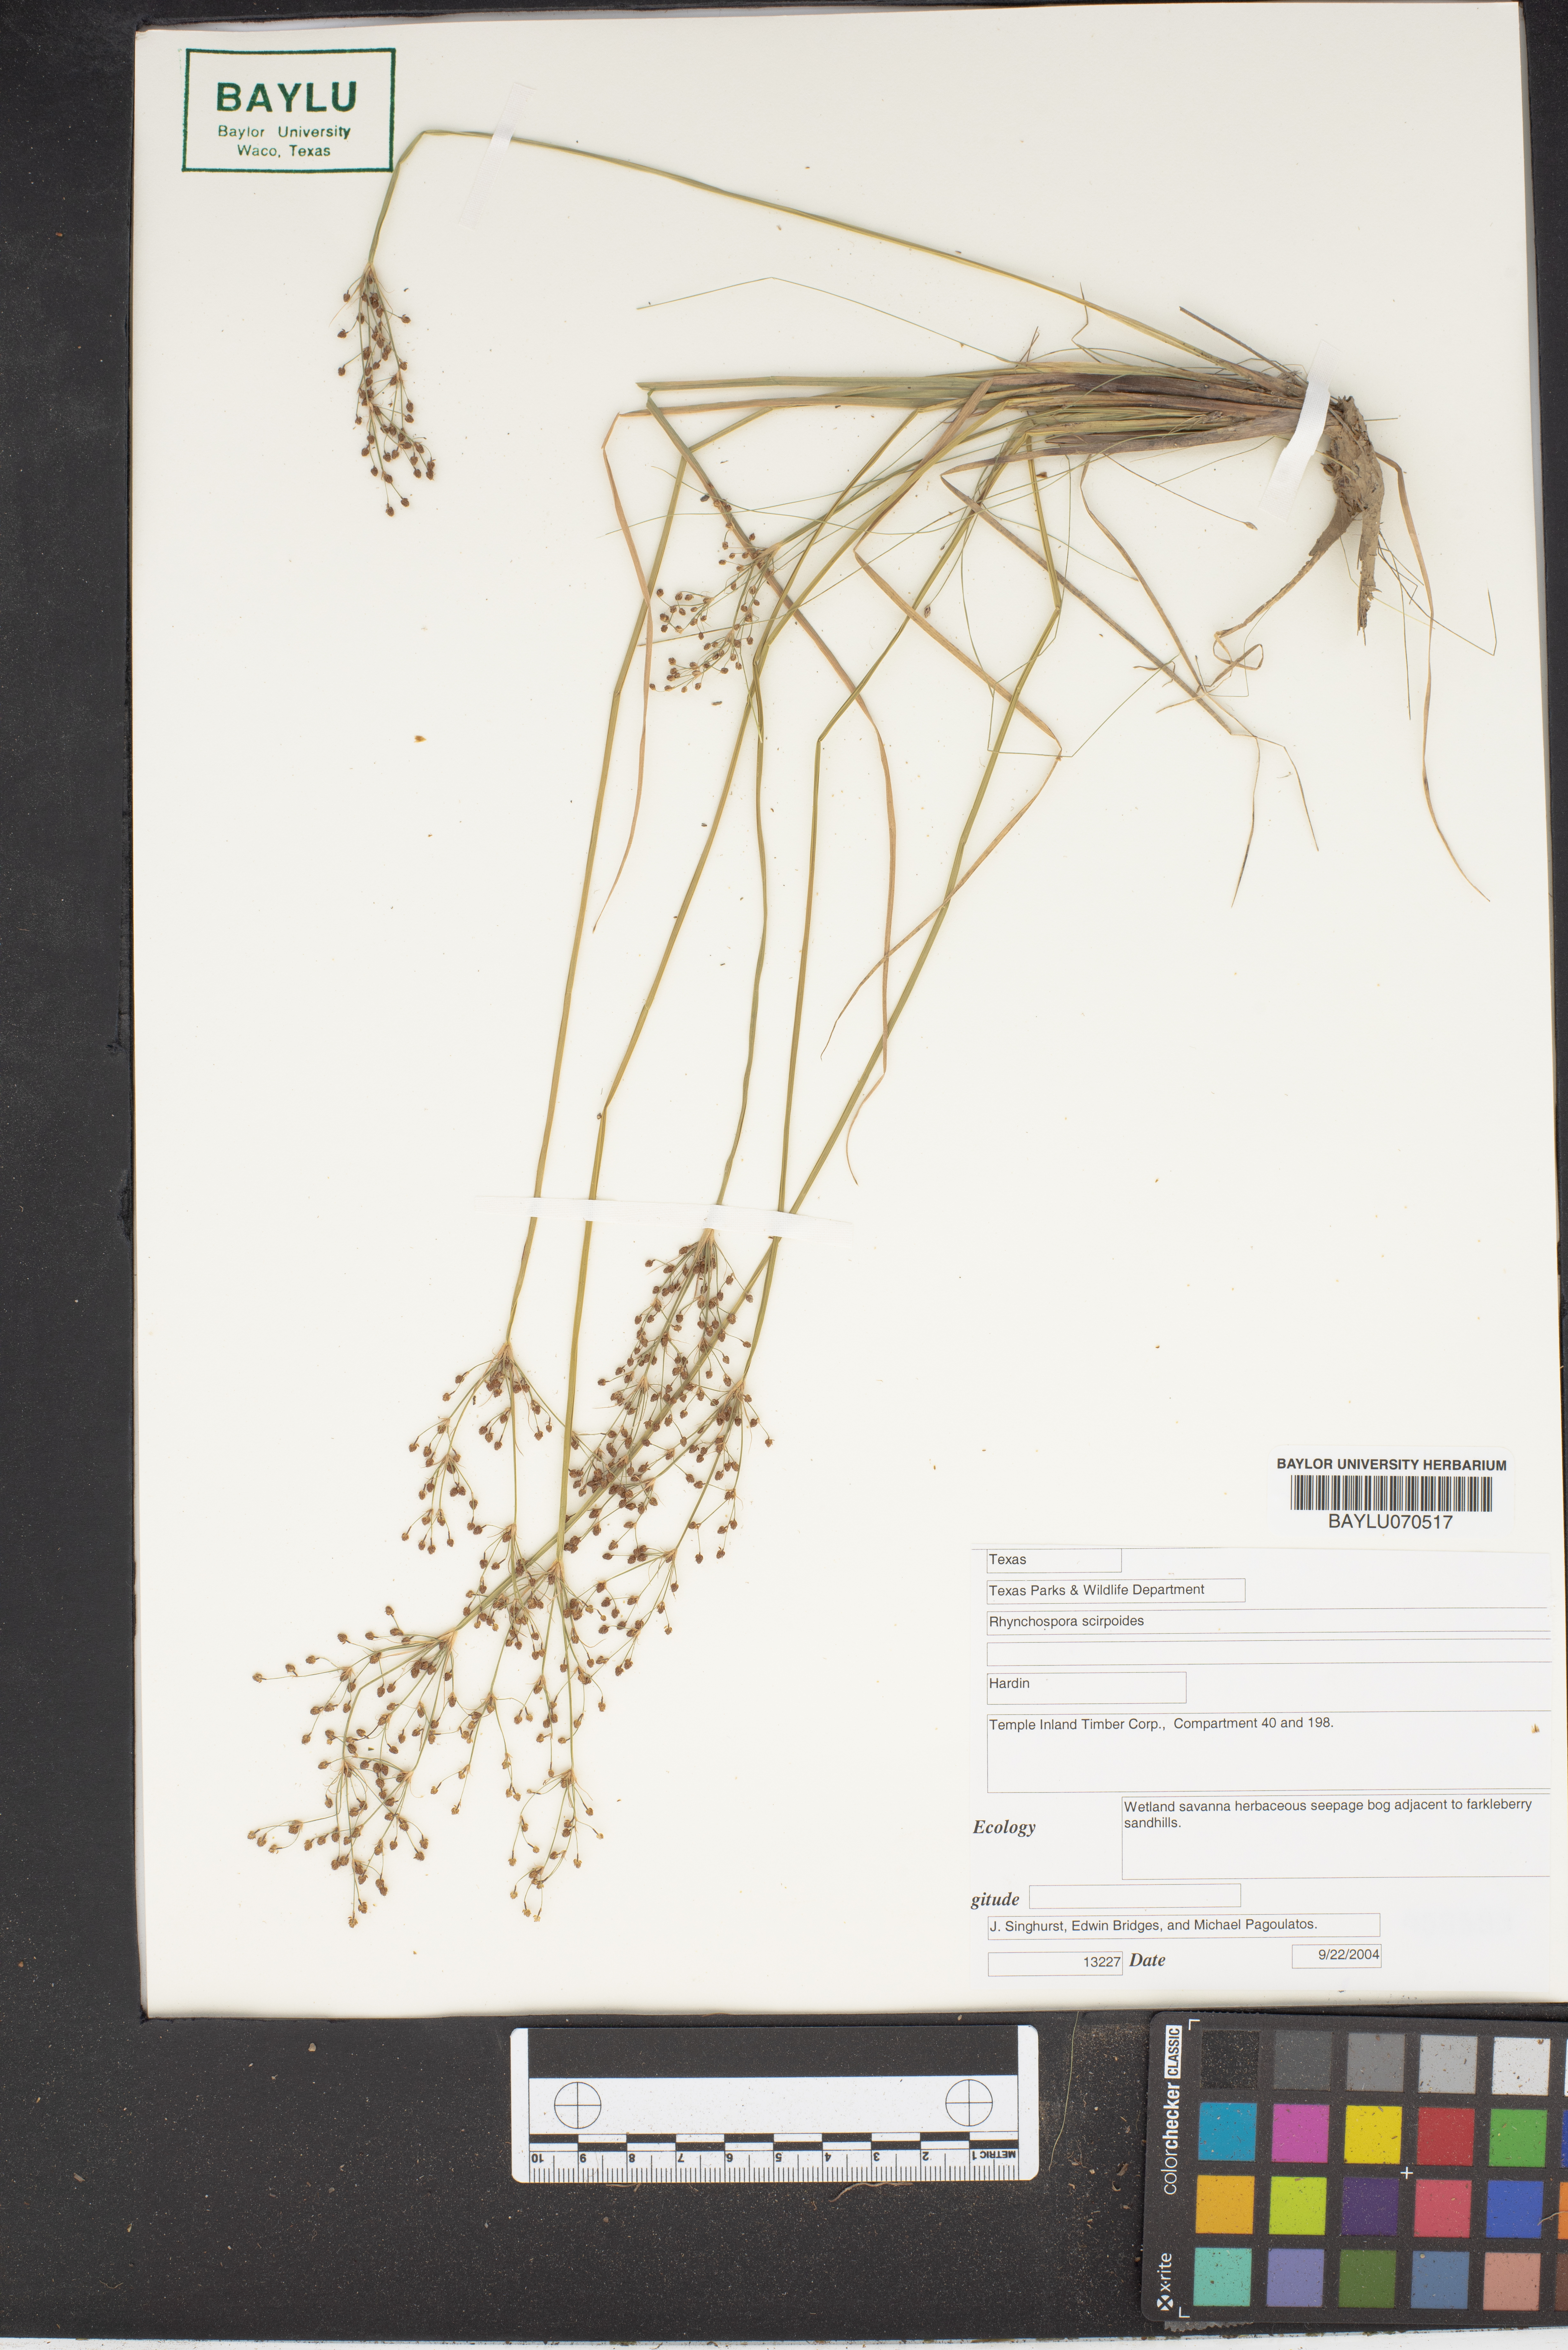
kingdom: Plantae
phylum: Tracheophyta
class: Liliopsida
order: Poales
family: Cyperaceae
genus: Rhynchospora
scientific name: Rhynchospora scirpoides
